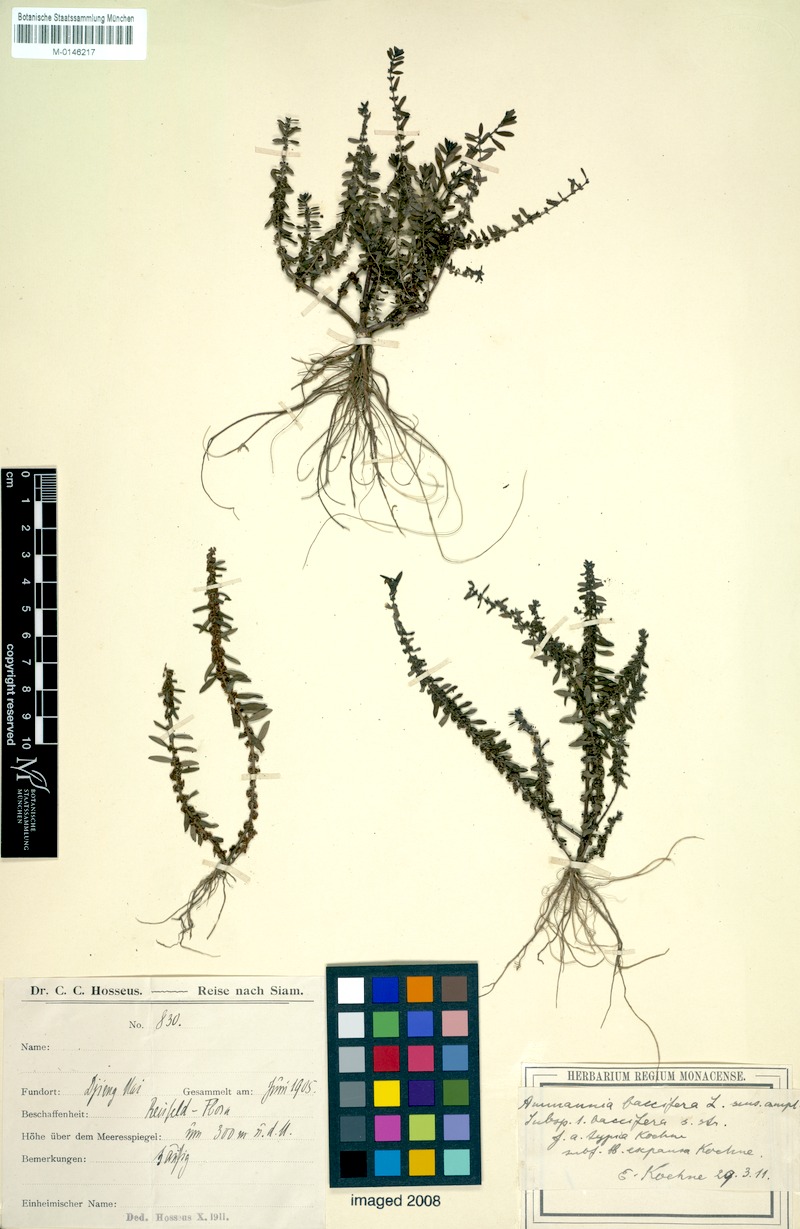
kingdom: Plantae
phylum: Tracheophyta
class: Magnoliopsida
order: Myrtales
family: Lythraceae
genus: Ammannia
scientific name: Ammannia baccifera
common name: Blistering ammania
